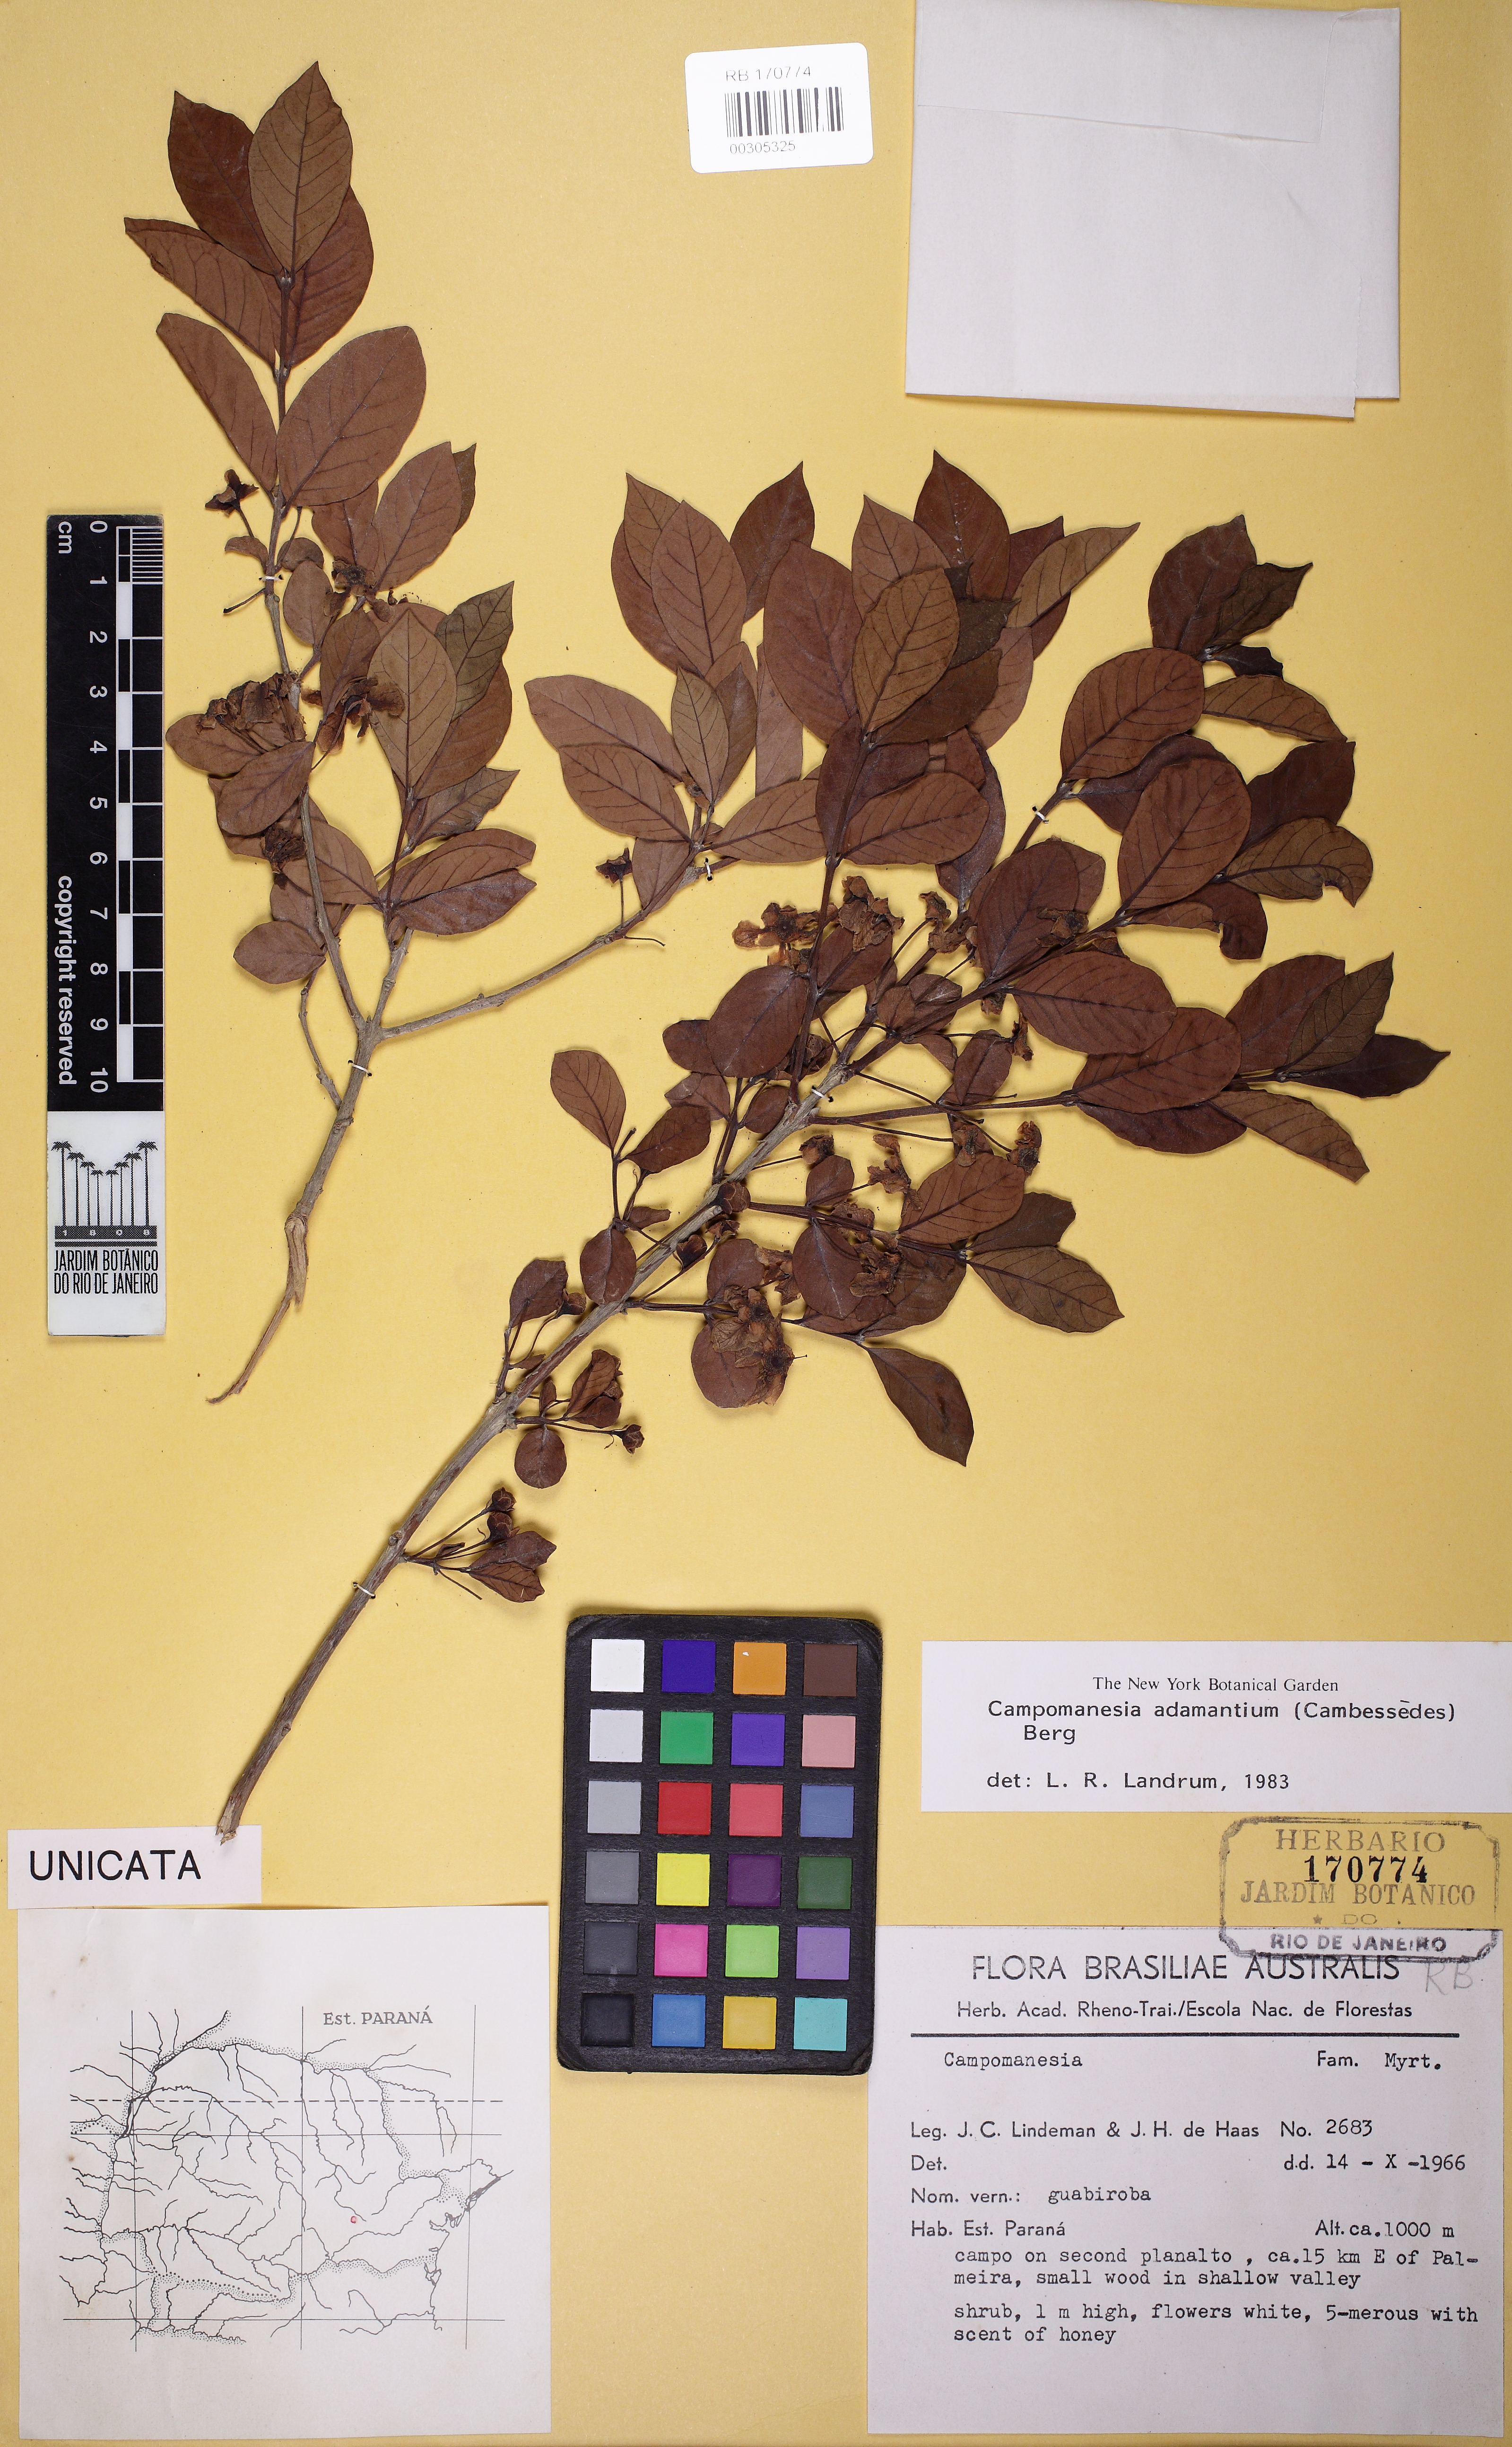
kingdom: Plantae
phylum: Tracheophyta
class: Magnoliopsida
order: Myrtales
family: Myrtaceae
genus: Campomanesia
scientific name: Campomanesia adamantium
